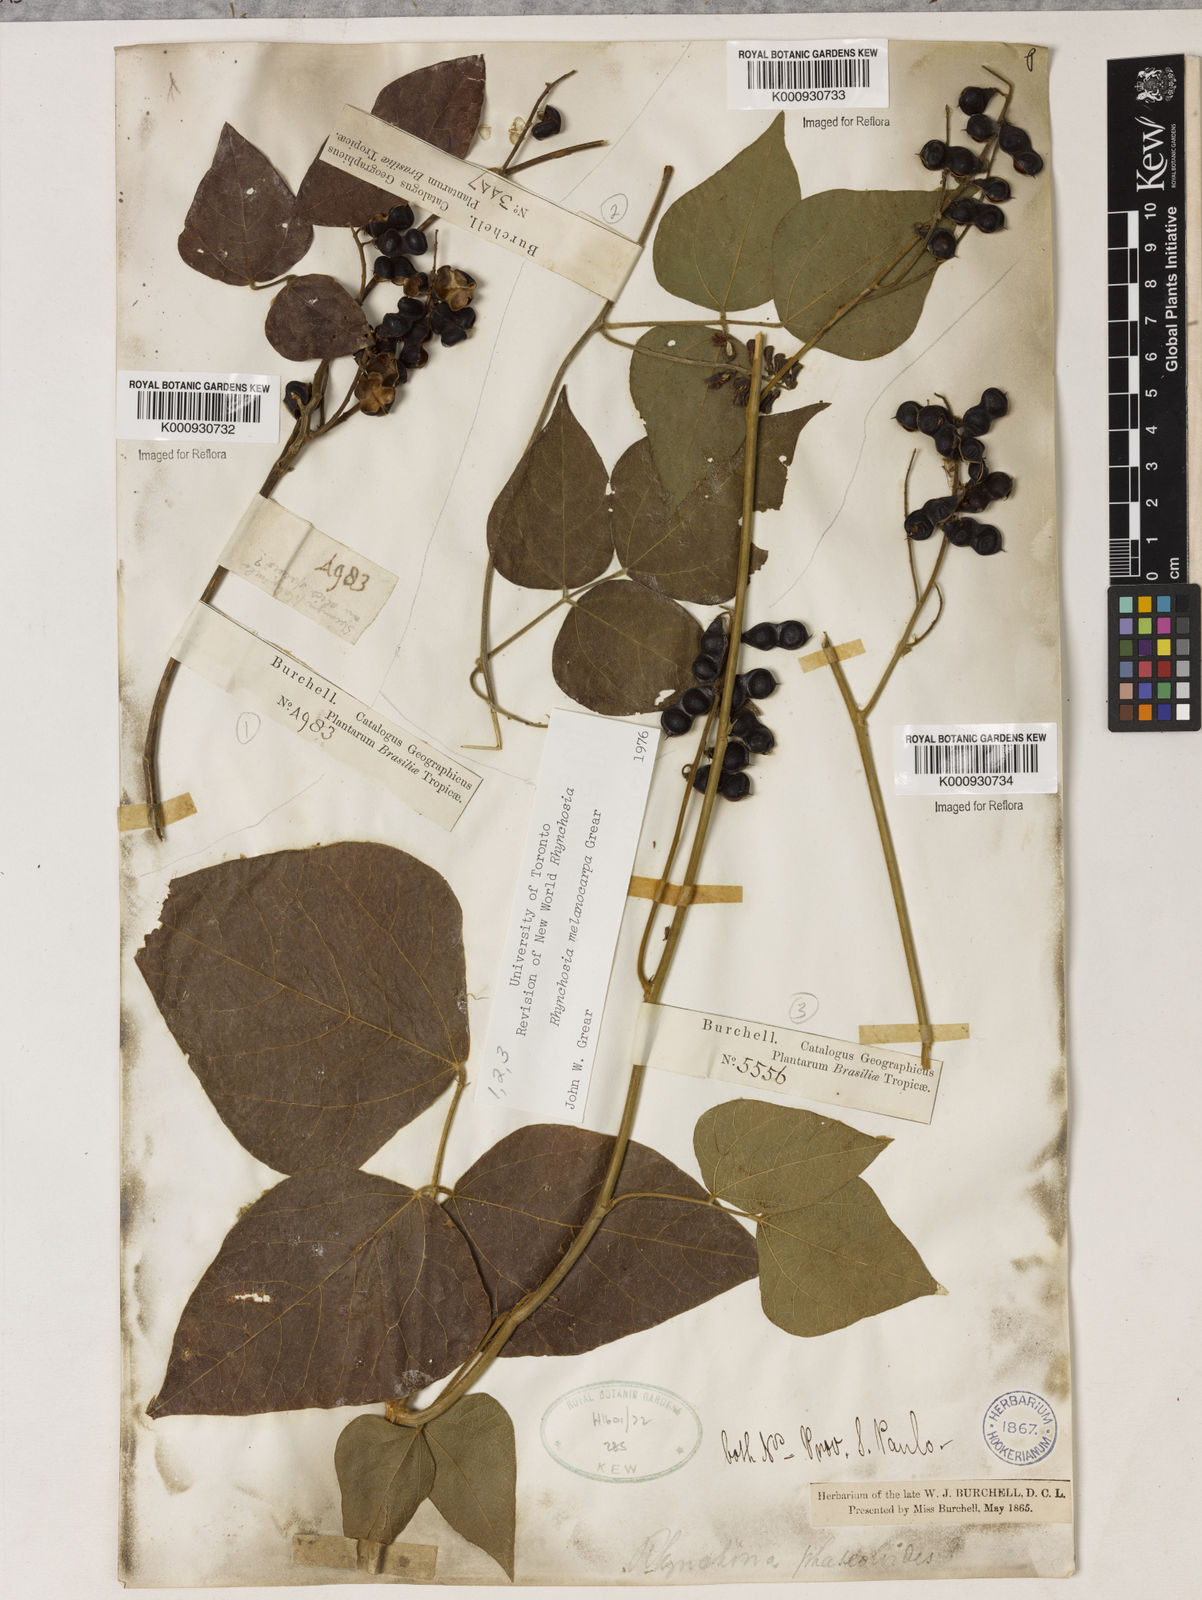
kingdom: Plantae
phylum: Tracheophyta
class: Magnoliopsida
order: Fabales
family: Fabaceae
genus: Rhynchosia
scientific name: Rhynchosia melanocarpa
